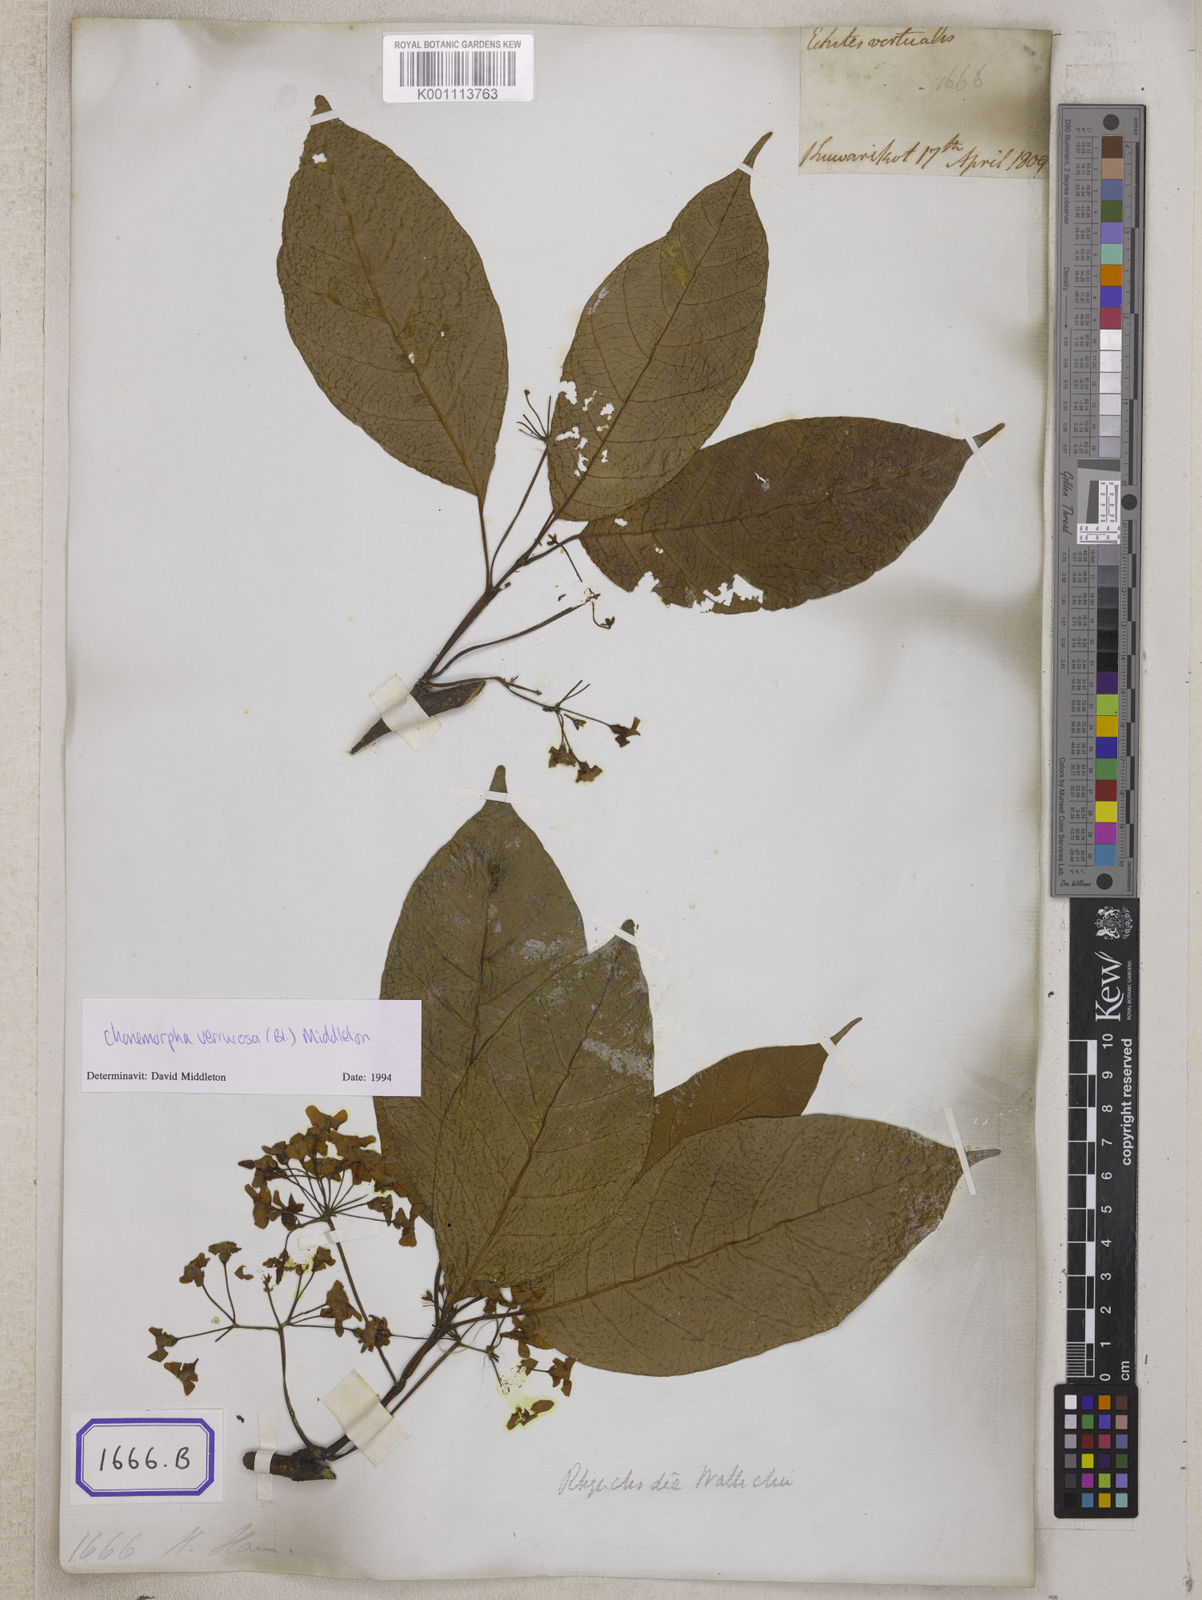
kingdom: Plantae
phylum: Tracheophyta
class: Magnoliopsida
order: Gentianales
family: Apocynaceae
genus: Echites
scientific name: Echites
